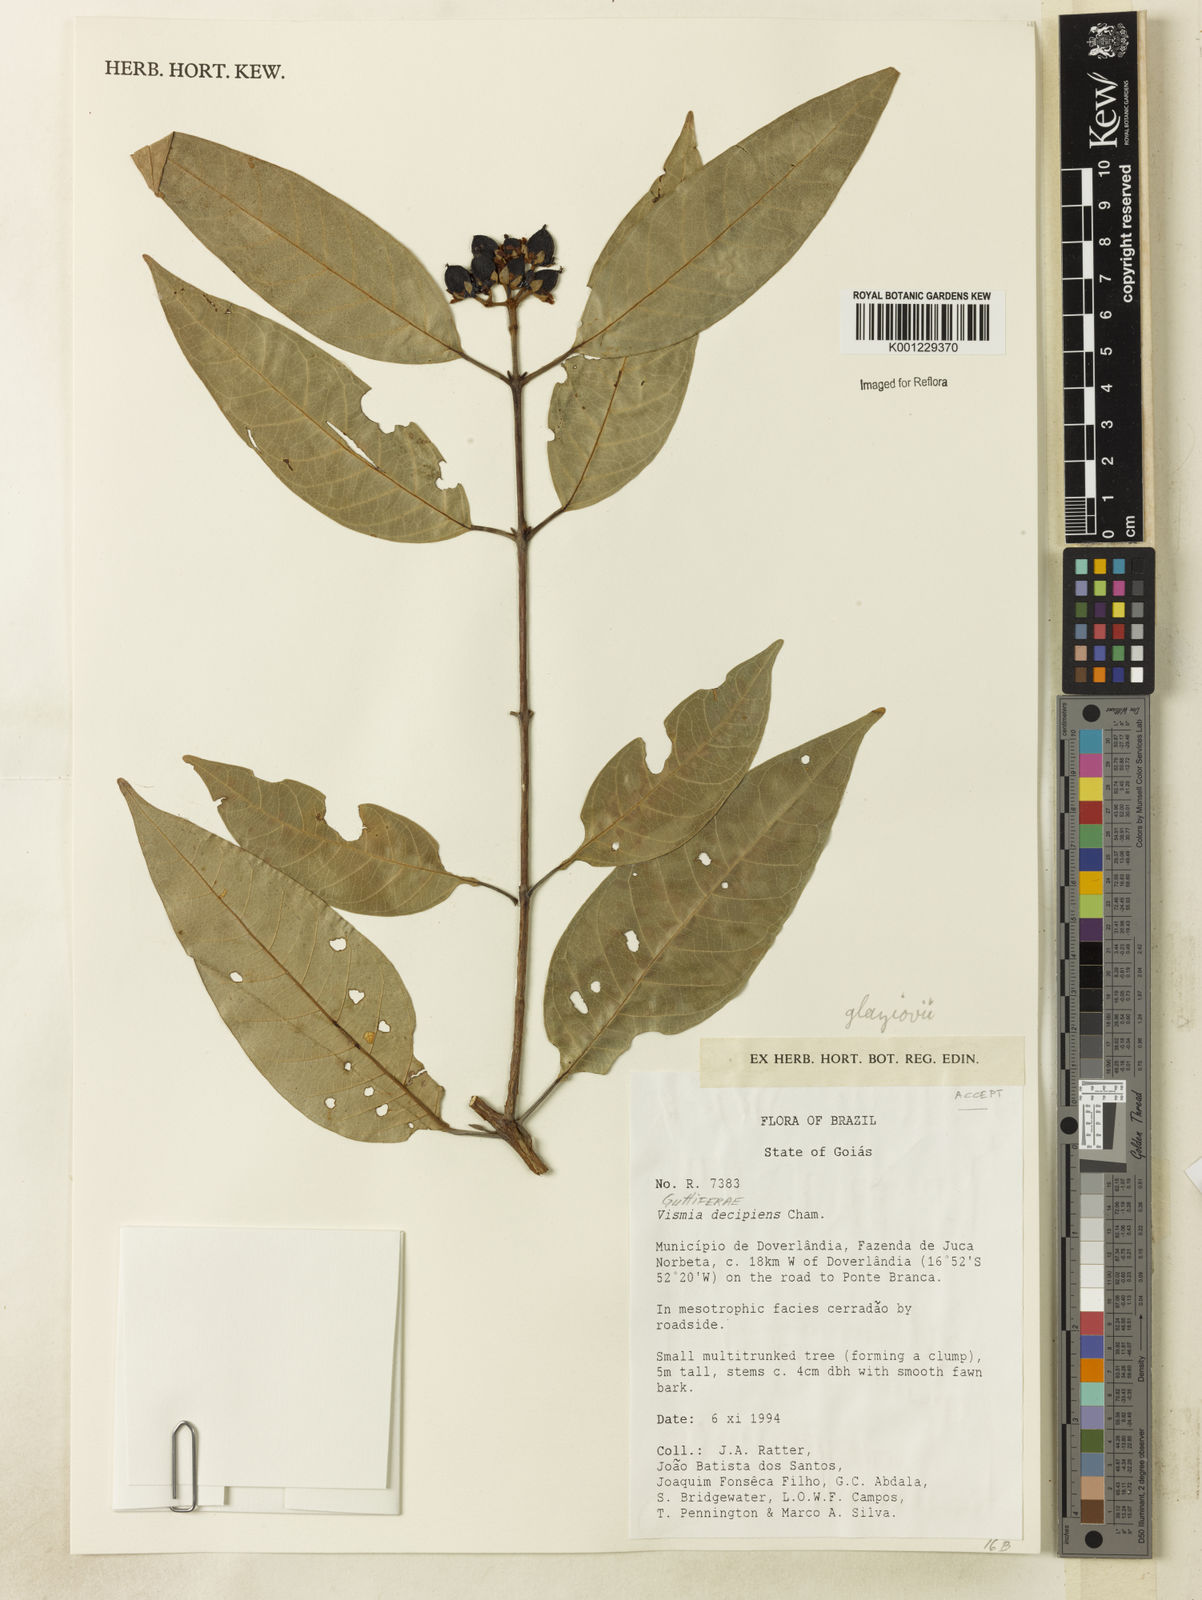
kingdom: Plantae
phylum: Tracheophyta
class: Magnoliopsida
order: Malpighiales
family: Hypericaceae
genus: Vismia
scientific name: Vismia gracilis
